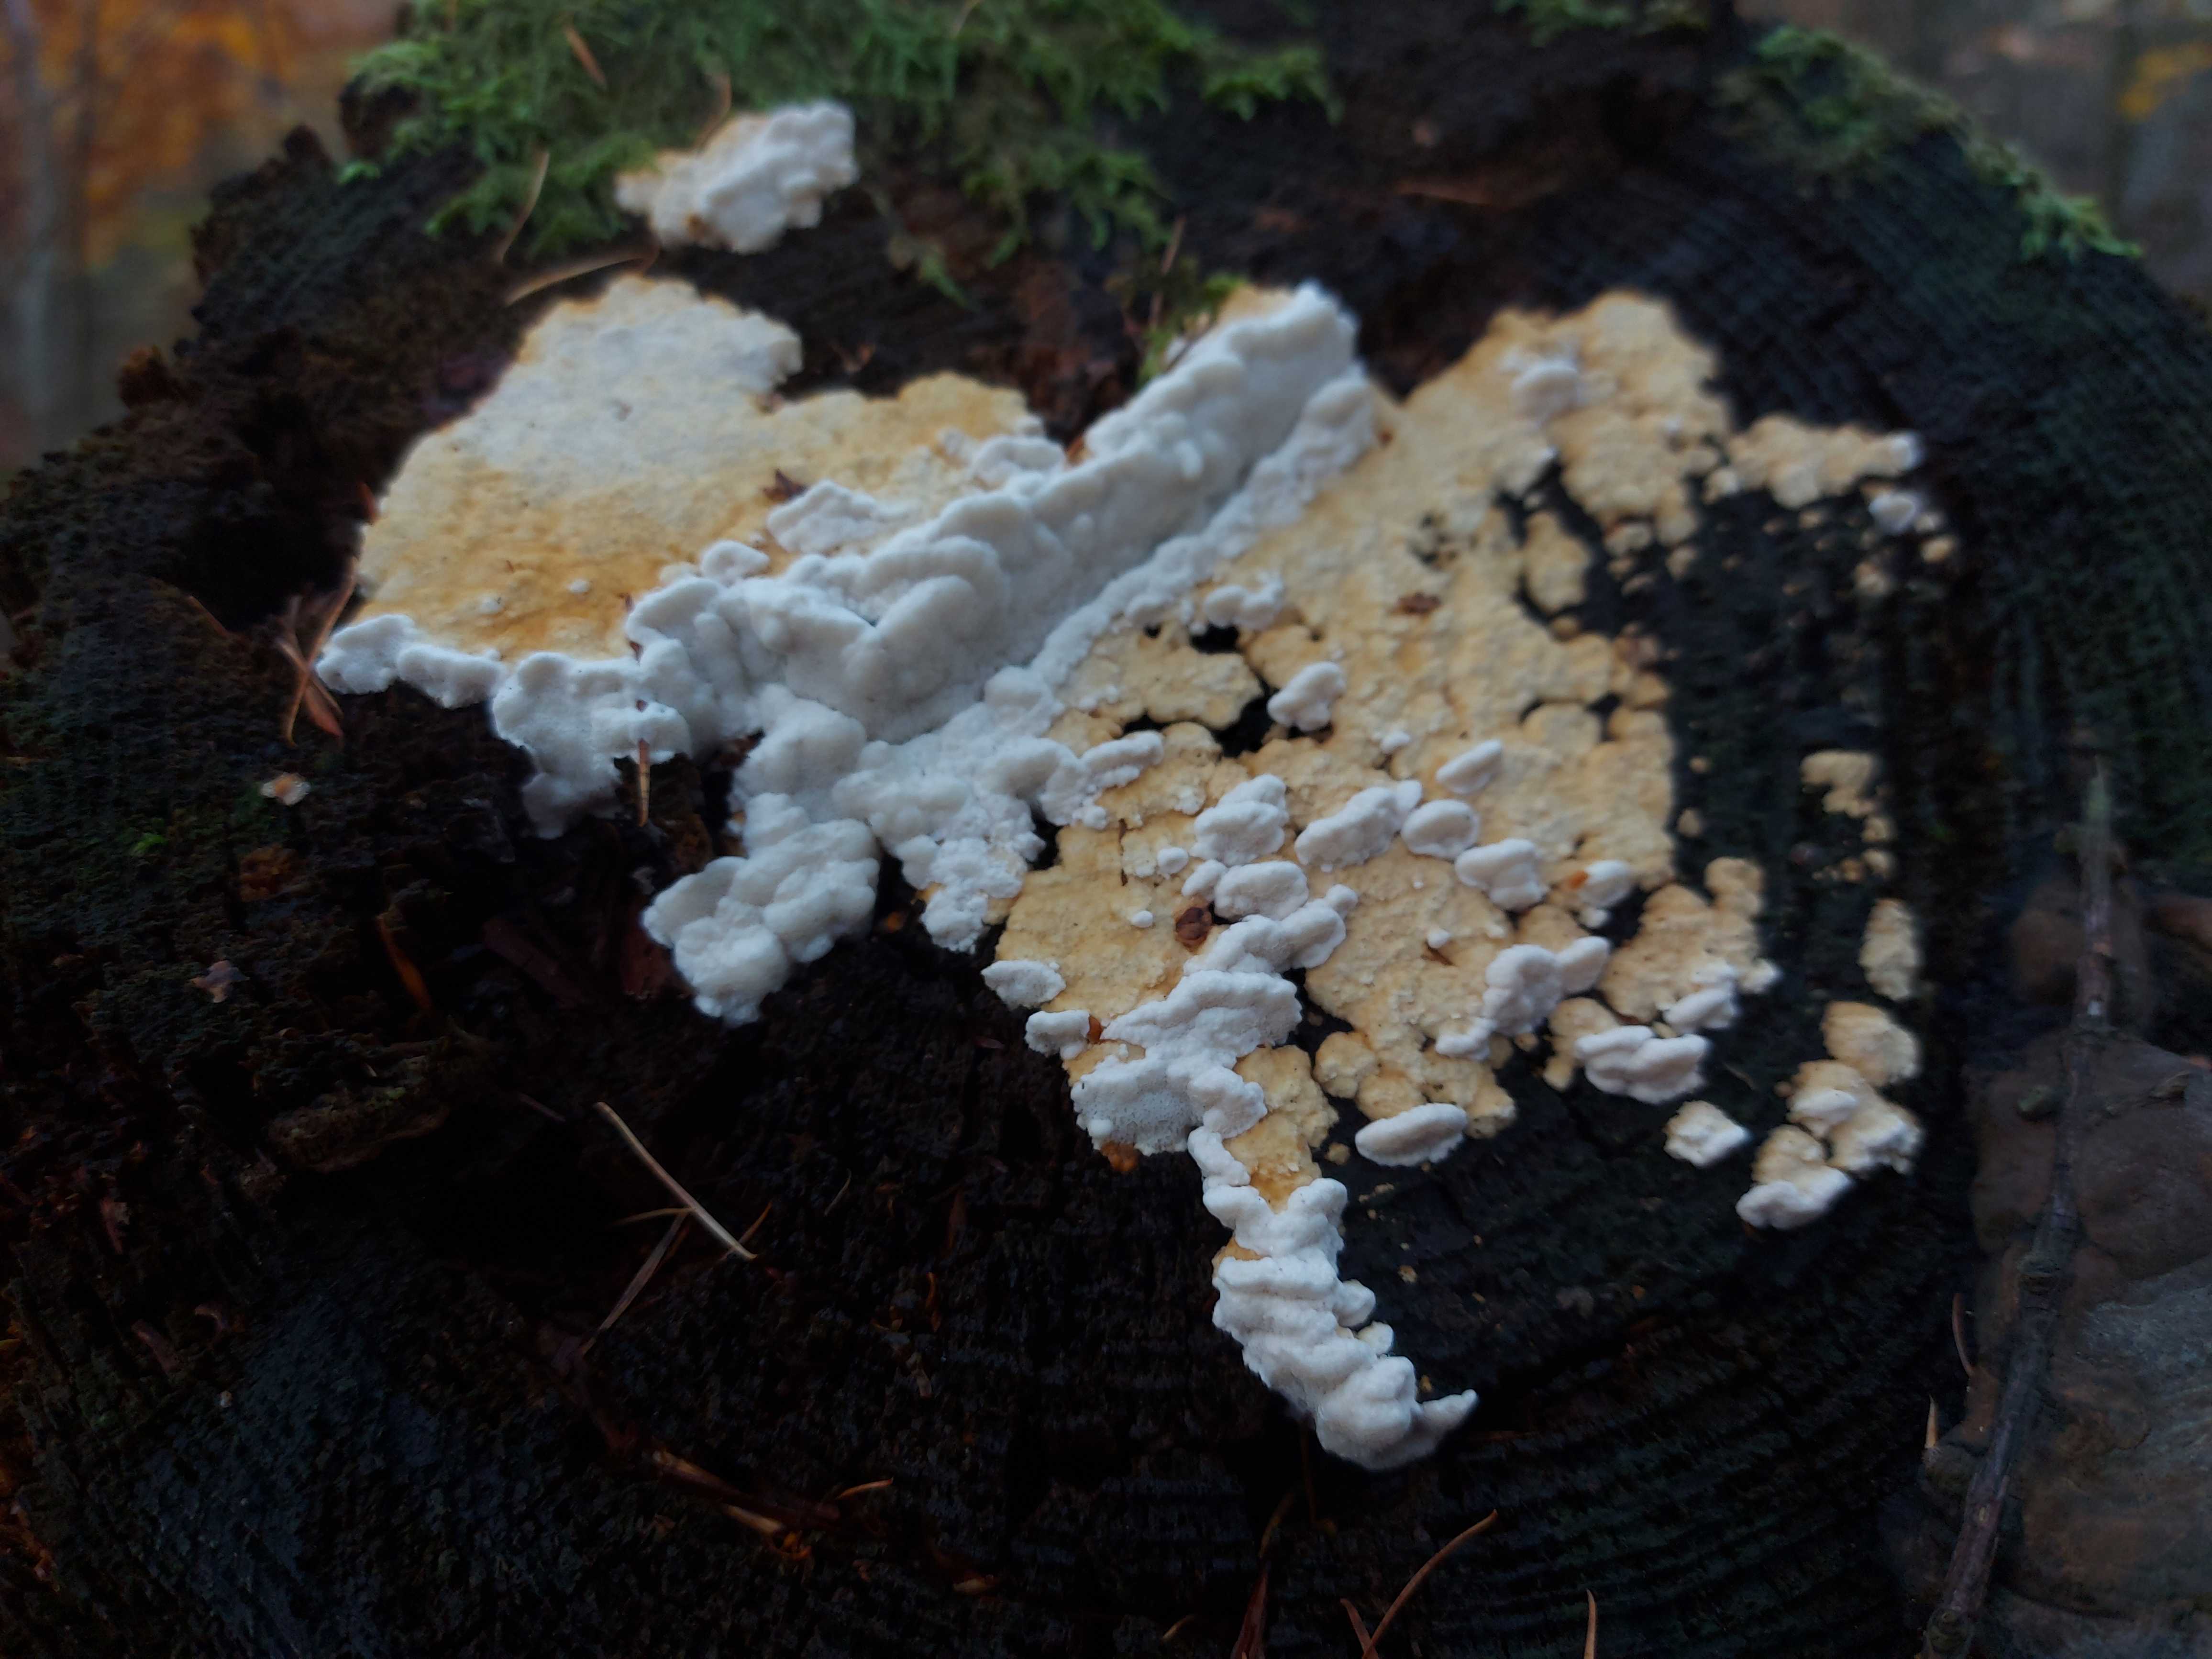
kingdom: Fungi
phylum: Basidiomycota
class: Agaricomycetes
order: Polyporales
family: Fomitopsidaceae
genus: Neoantrodia
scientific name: Neoantrodia serialis
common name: række-sejporesvamp
